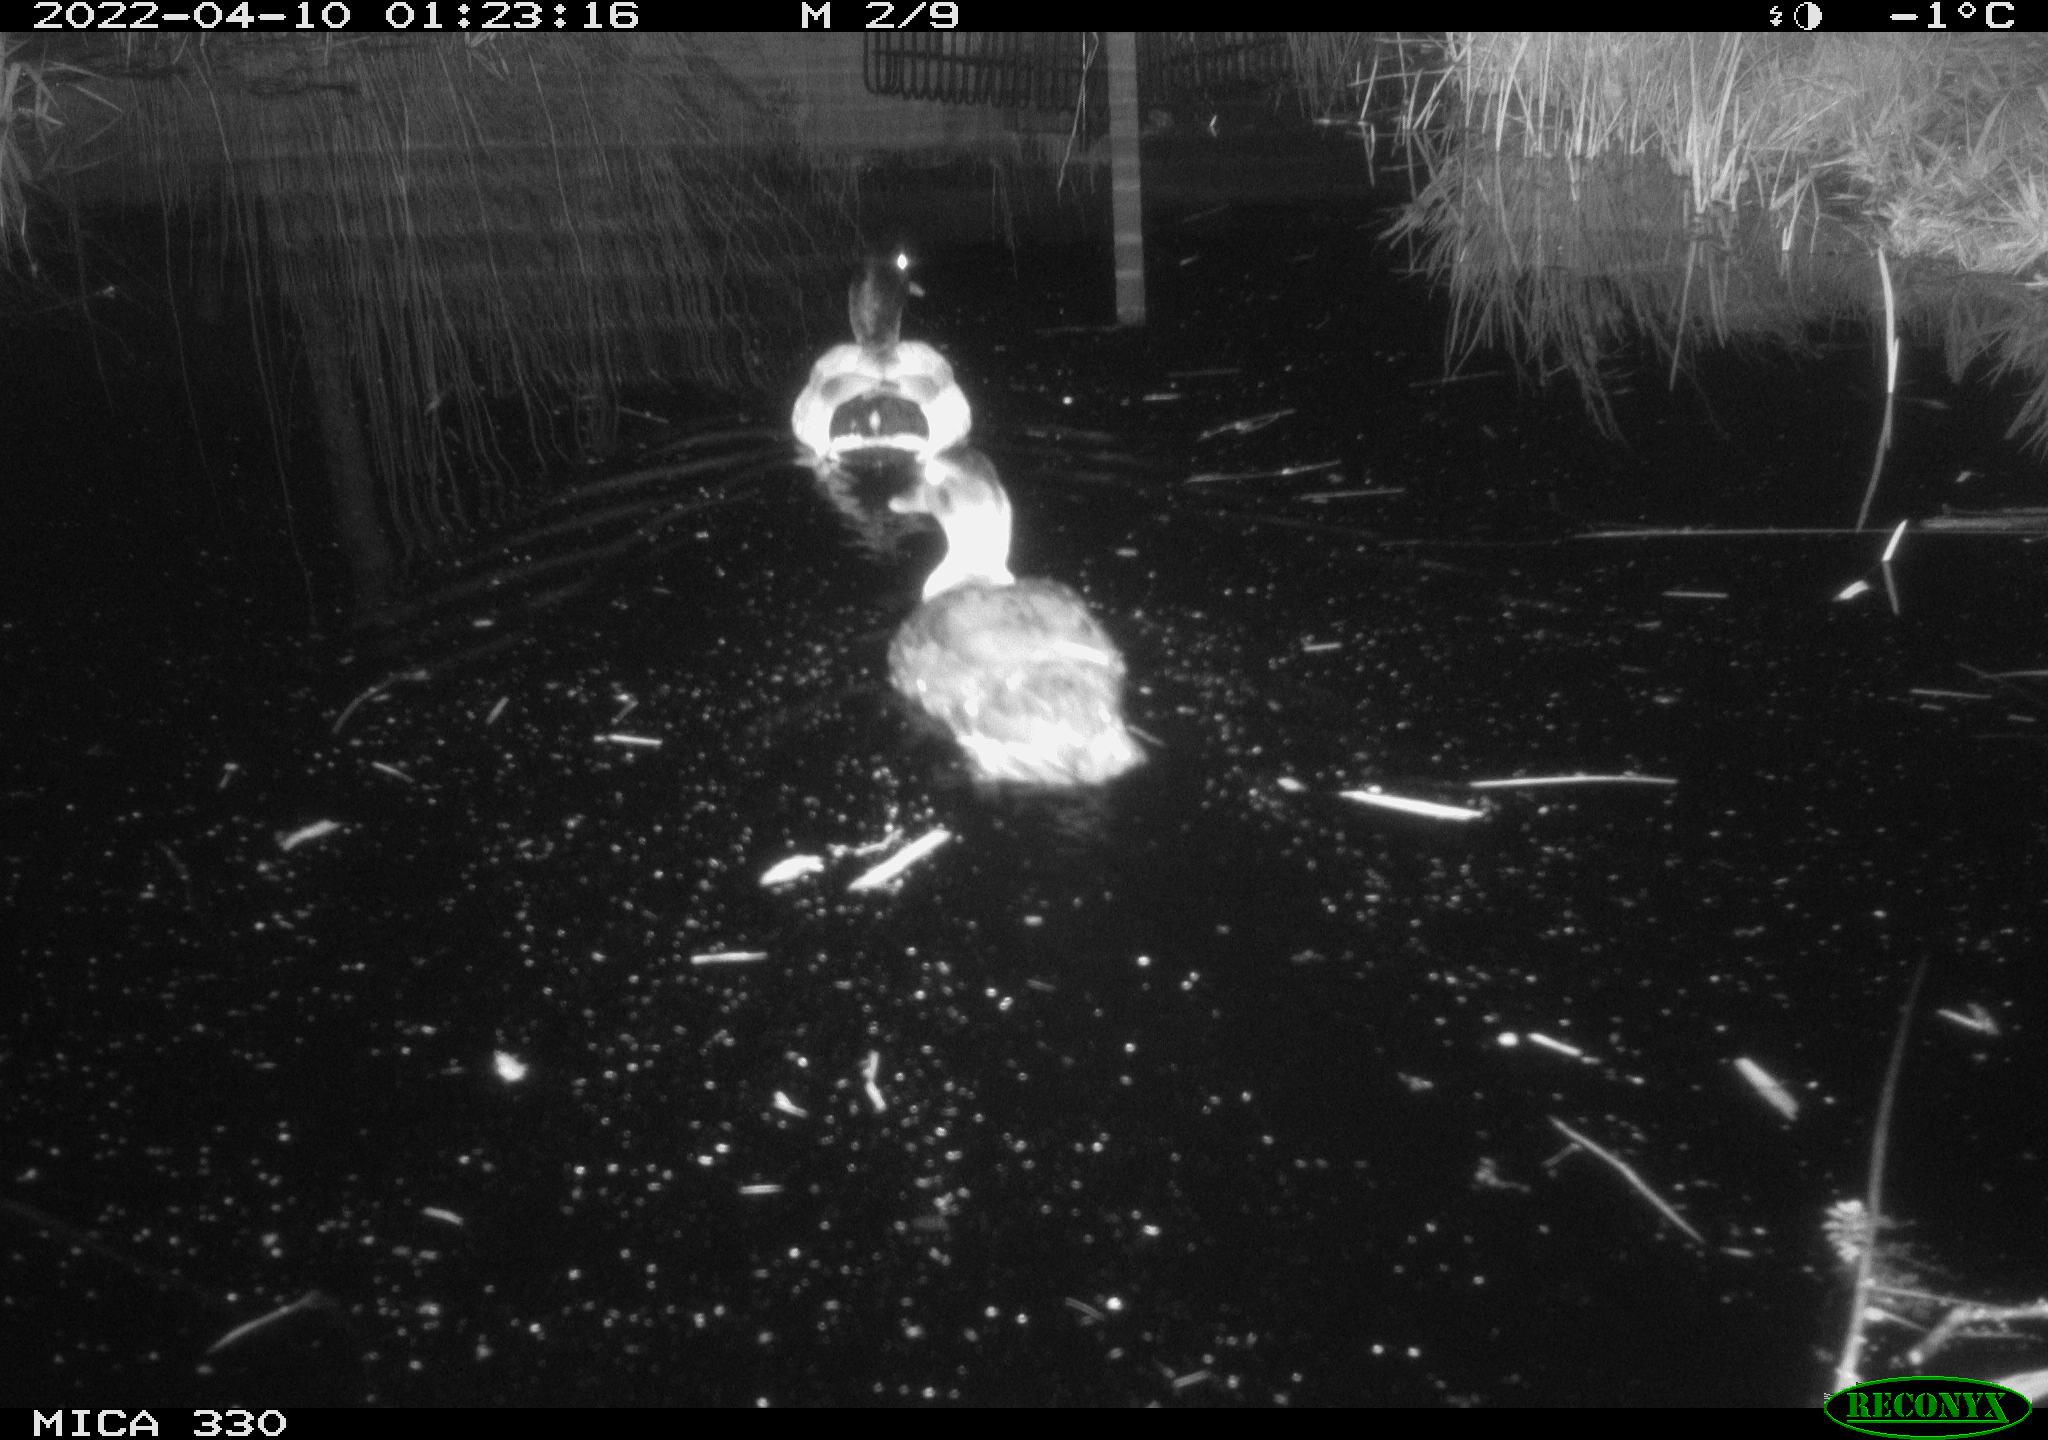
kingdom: Animalia
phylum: Chordata
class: Aves
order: Anseriformes
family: Anatidae
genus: Mareca
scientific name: Mareca strepera
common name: Gadwall
